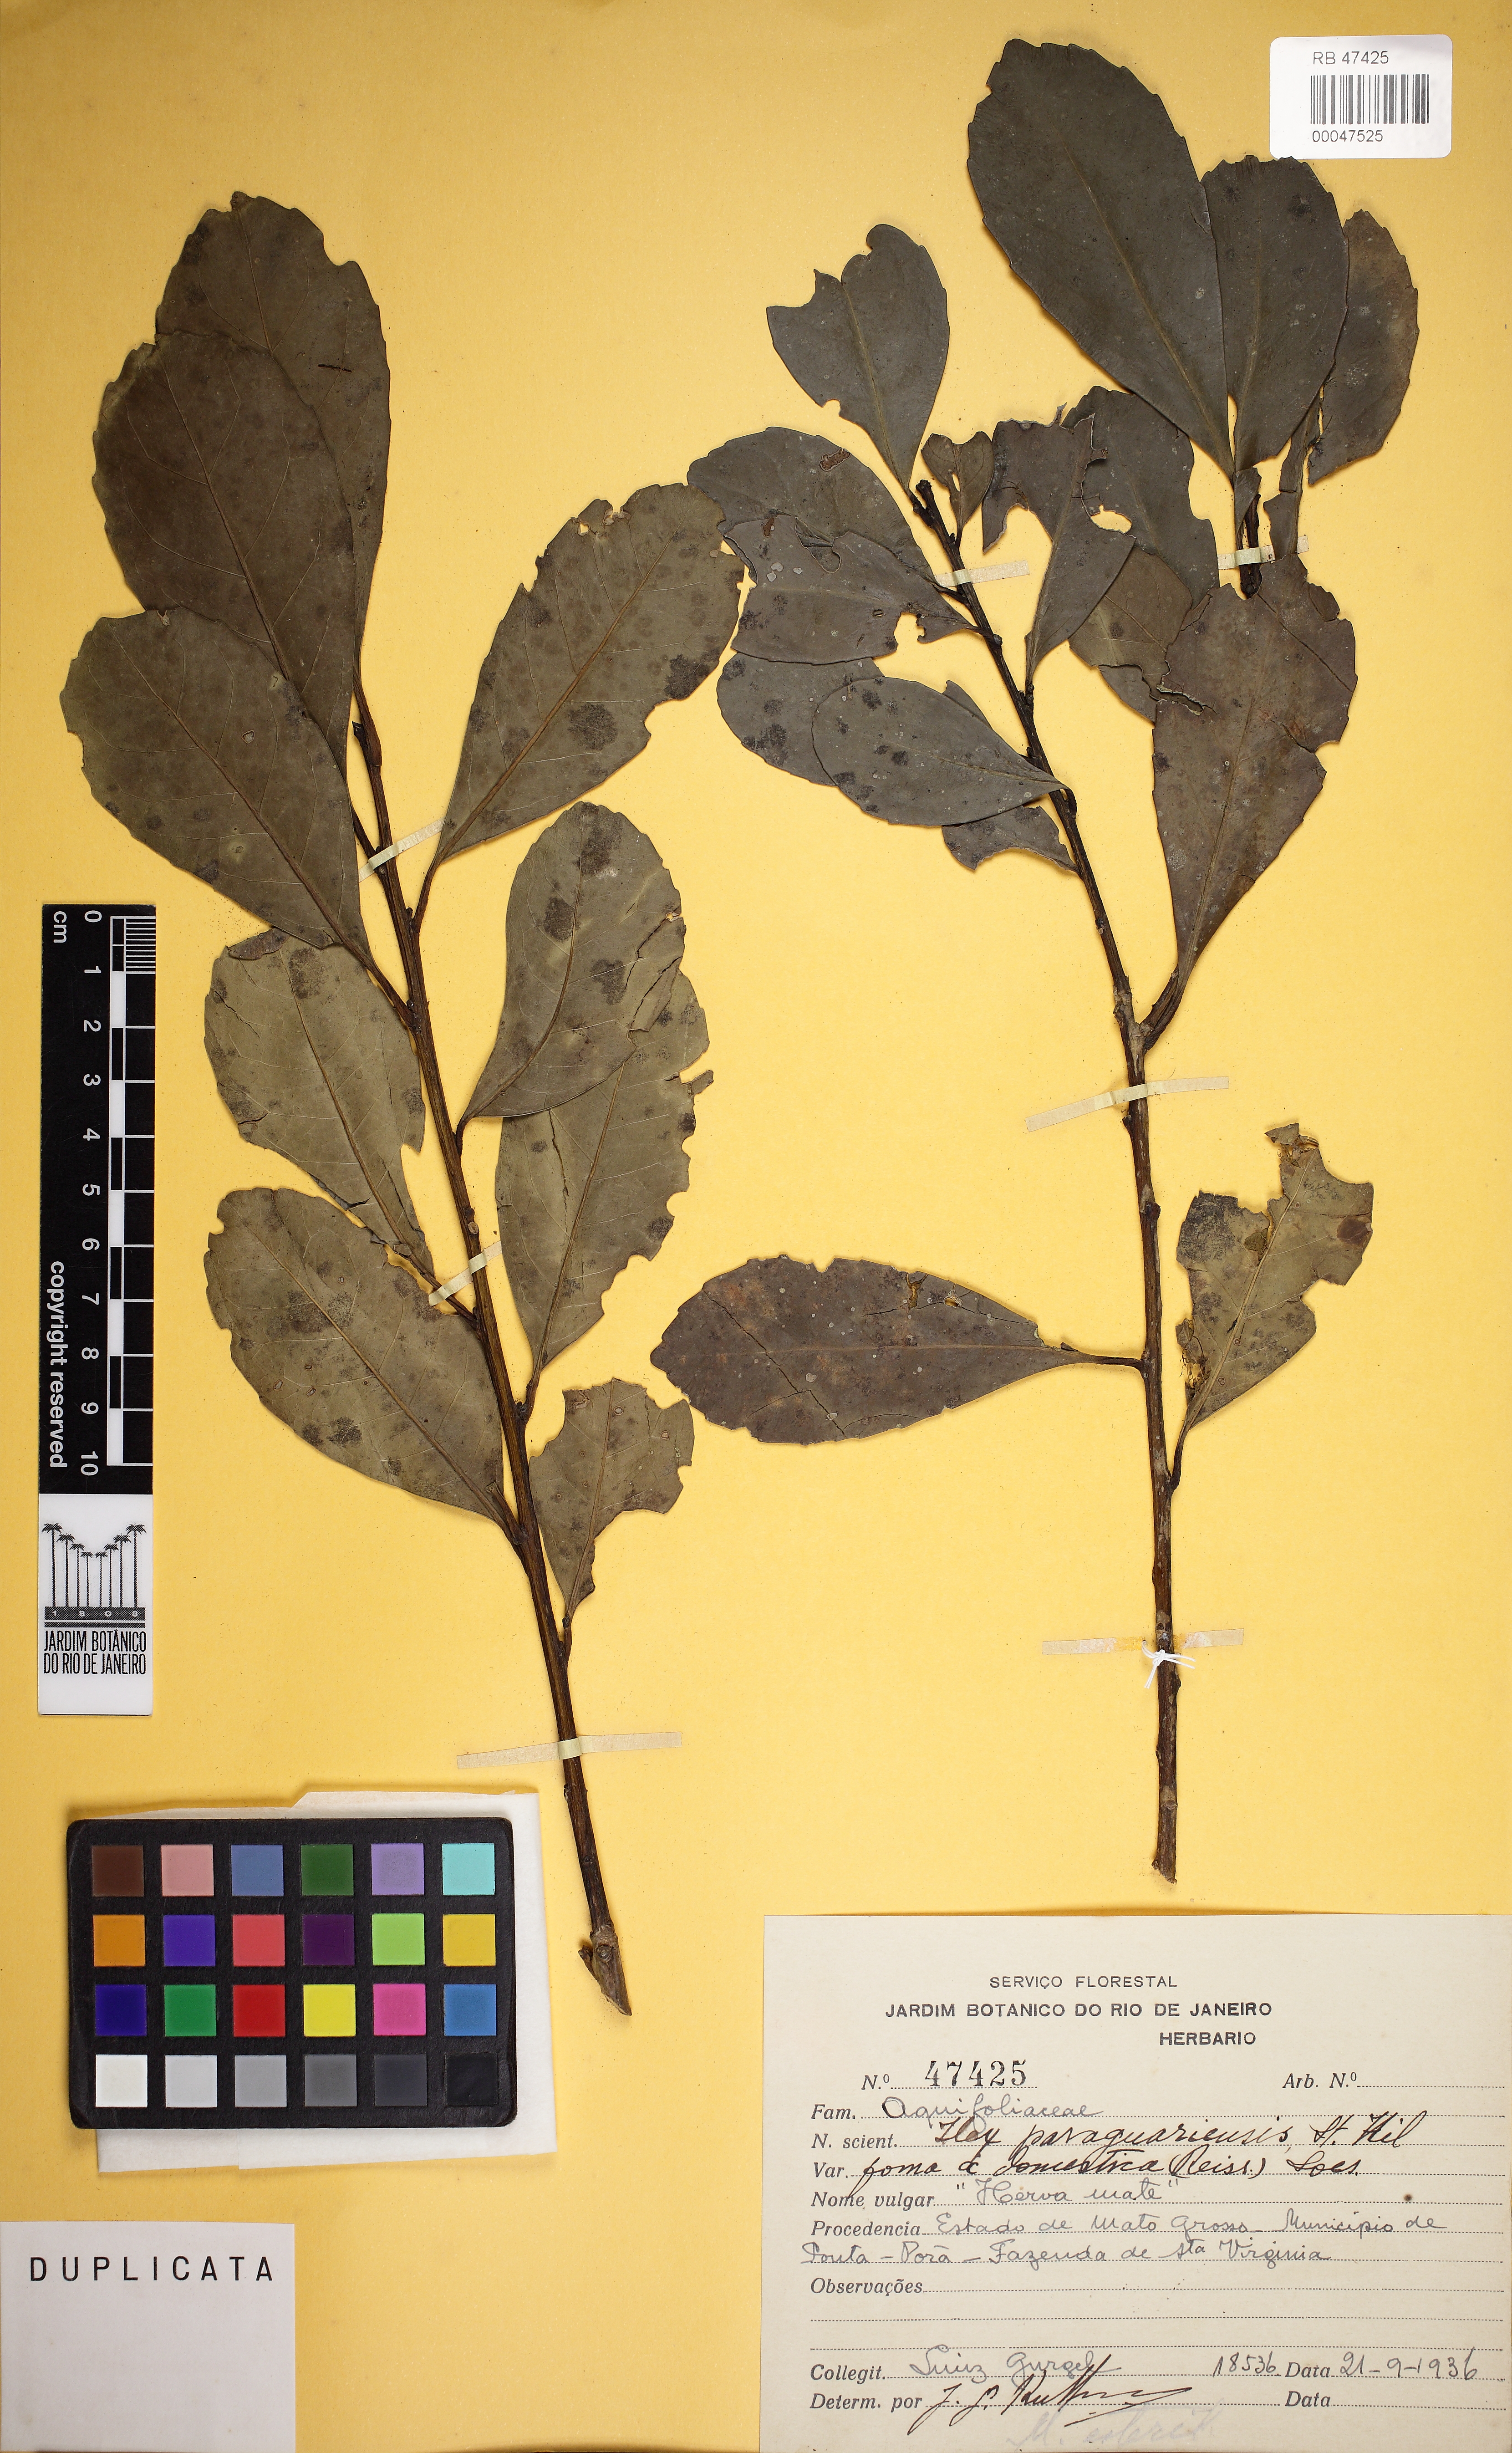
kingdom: Plantae
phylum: Tracheophyta
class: Magnoliopsida
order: Aquifoliales
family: Aquifoliaceae
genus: Ilex
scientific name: Ilex paraguariensis
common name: Paraguay tea
